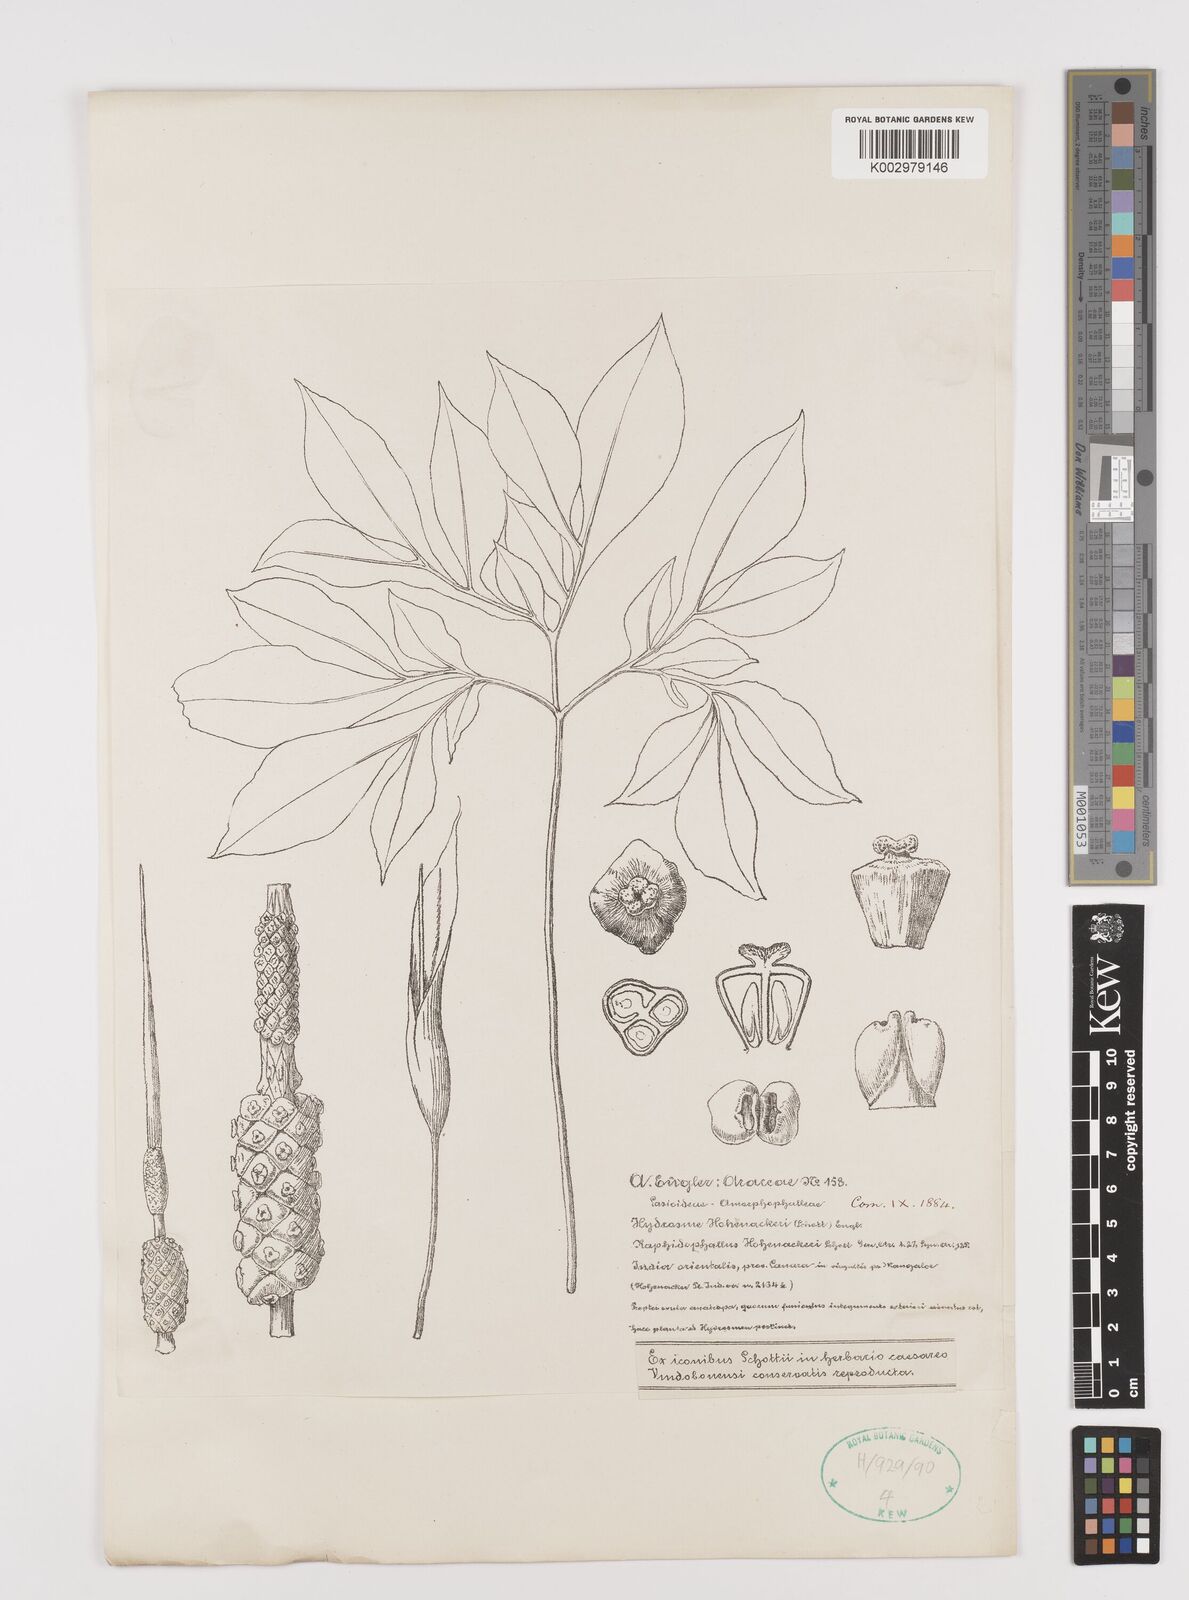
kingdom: Plantae
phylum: Tracheophyta
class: Liliopsida
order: Alismatales
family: Araceae
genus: Amorphophallus
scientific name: Amorphophallus hohenackeri
